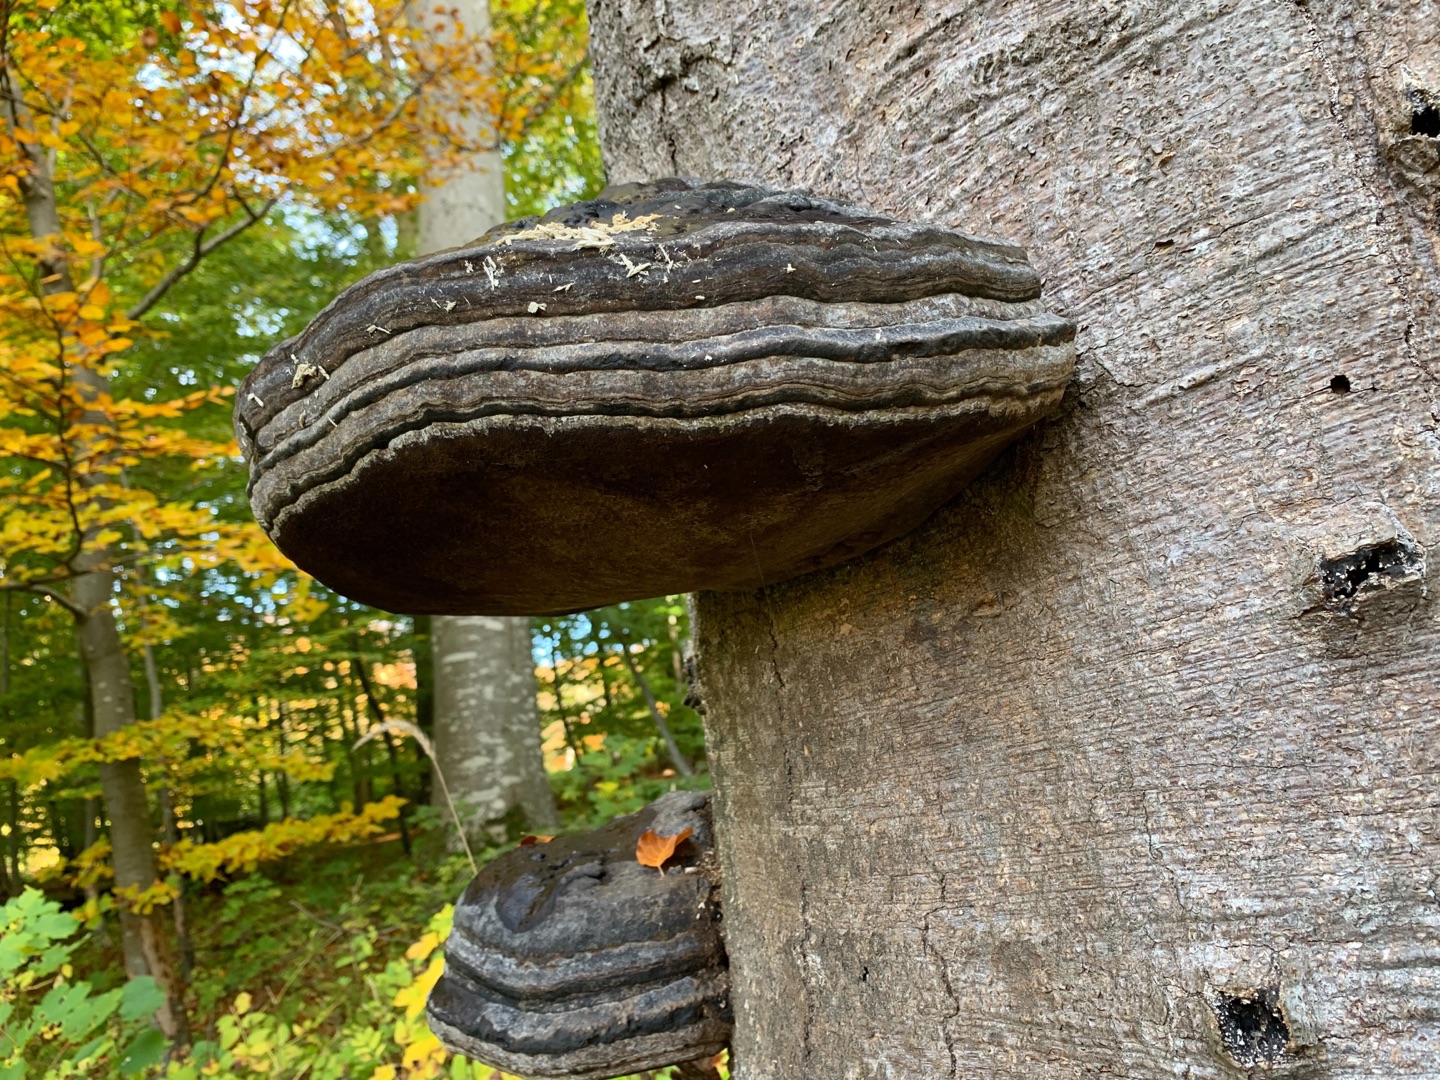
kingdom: Fungi
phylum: Basidiomycota
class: Agaricomycetes
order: Polyporales
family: Polyporaceae
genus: Fomes
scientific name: Fomes fomentarius
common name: Tøndersvamp
